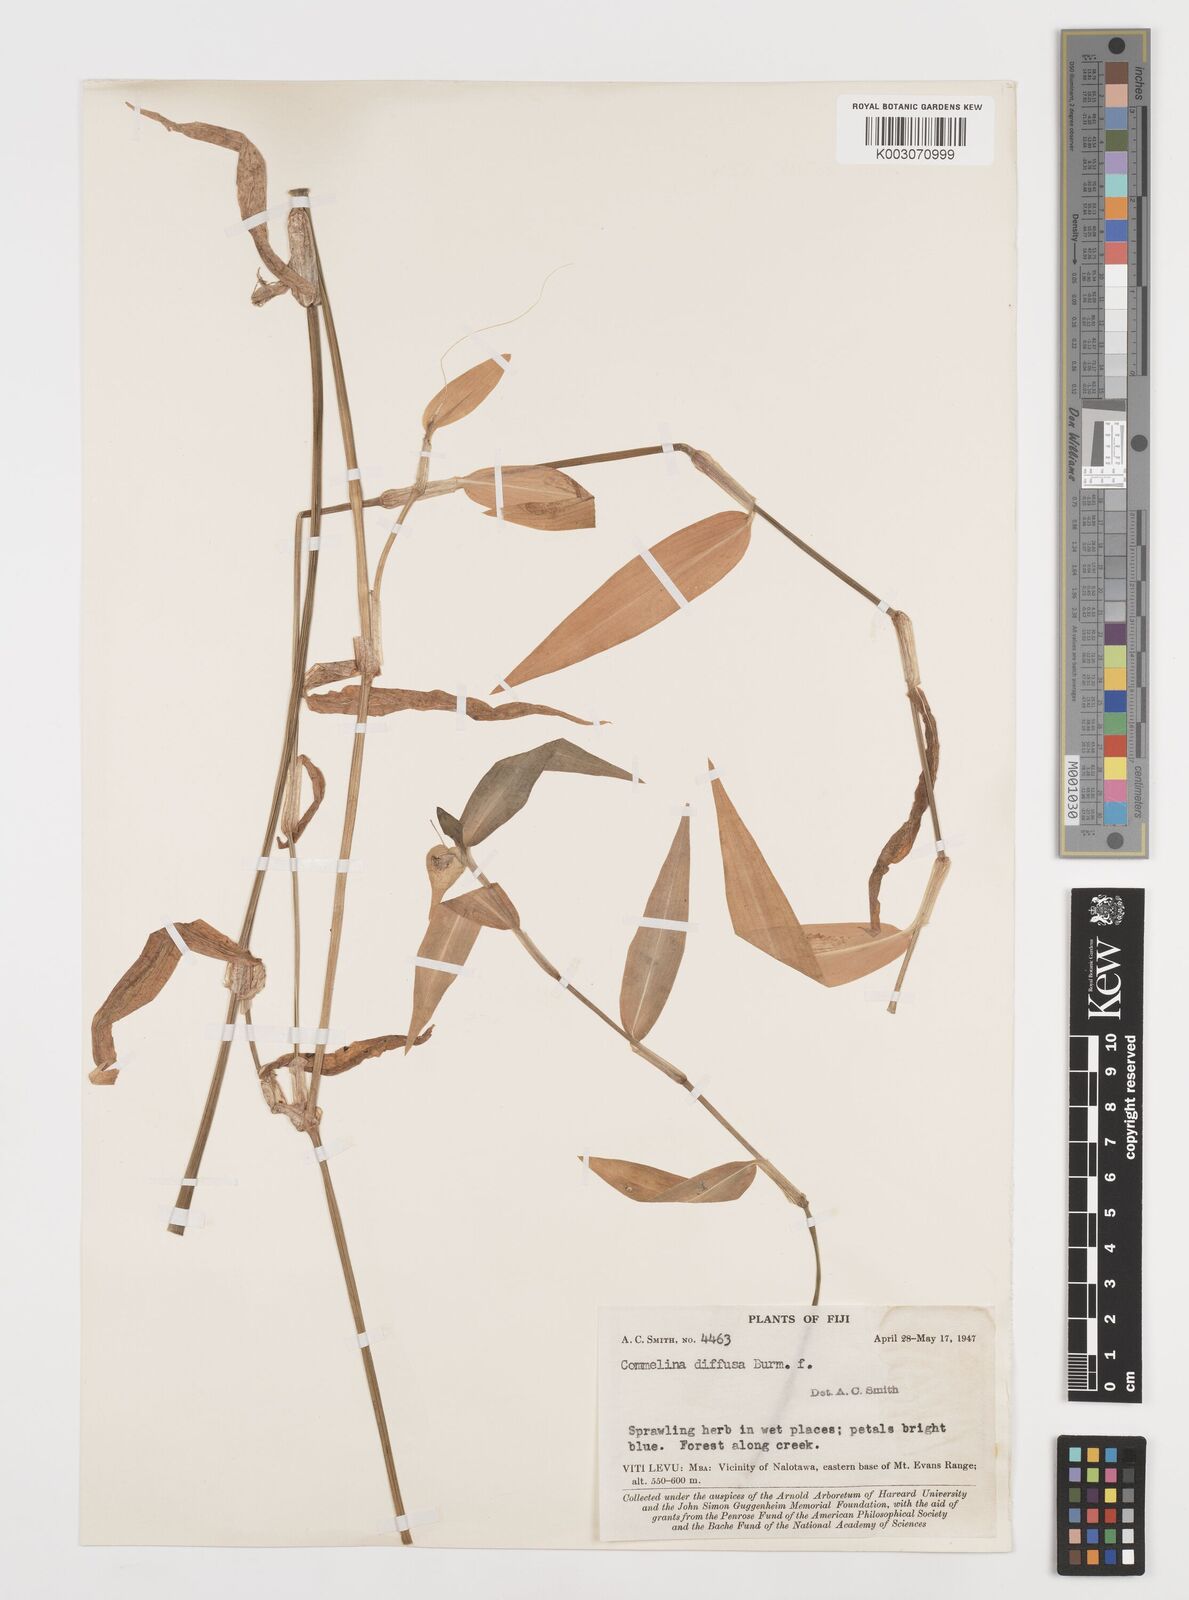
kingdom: Plantae
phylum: Tracheophyta
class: Liliopsida
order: Commelinales
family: Commelinaceae
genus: Commelina
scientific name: Commelina diffusa
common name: Climbing dayflower
